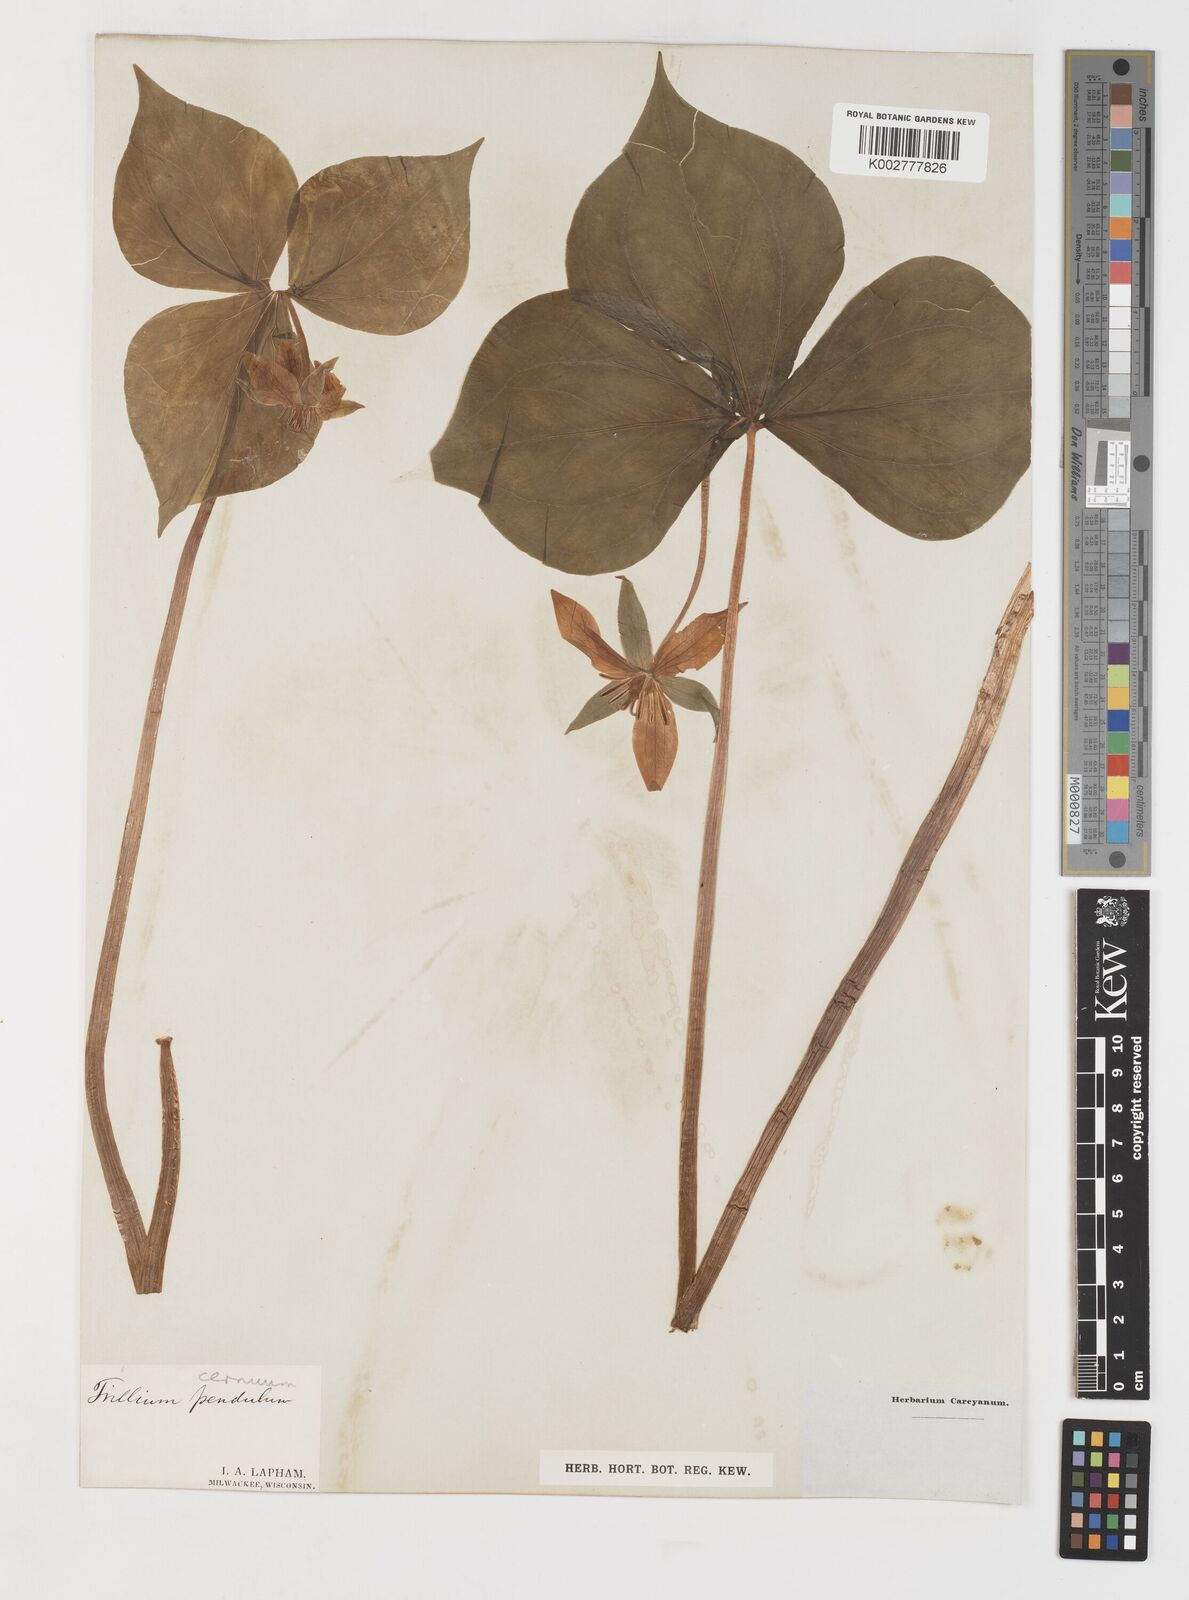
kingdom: Plantae
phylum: Tracheophyta
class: Liliopsida
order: Liliales
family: Melanthiaceae
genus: Trillium
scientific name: Trillium cernuum
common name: Nodding trillium
